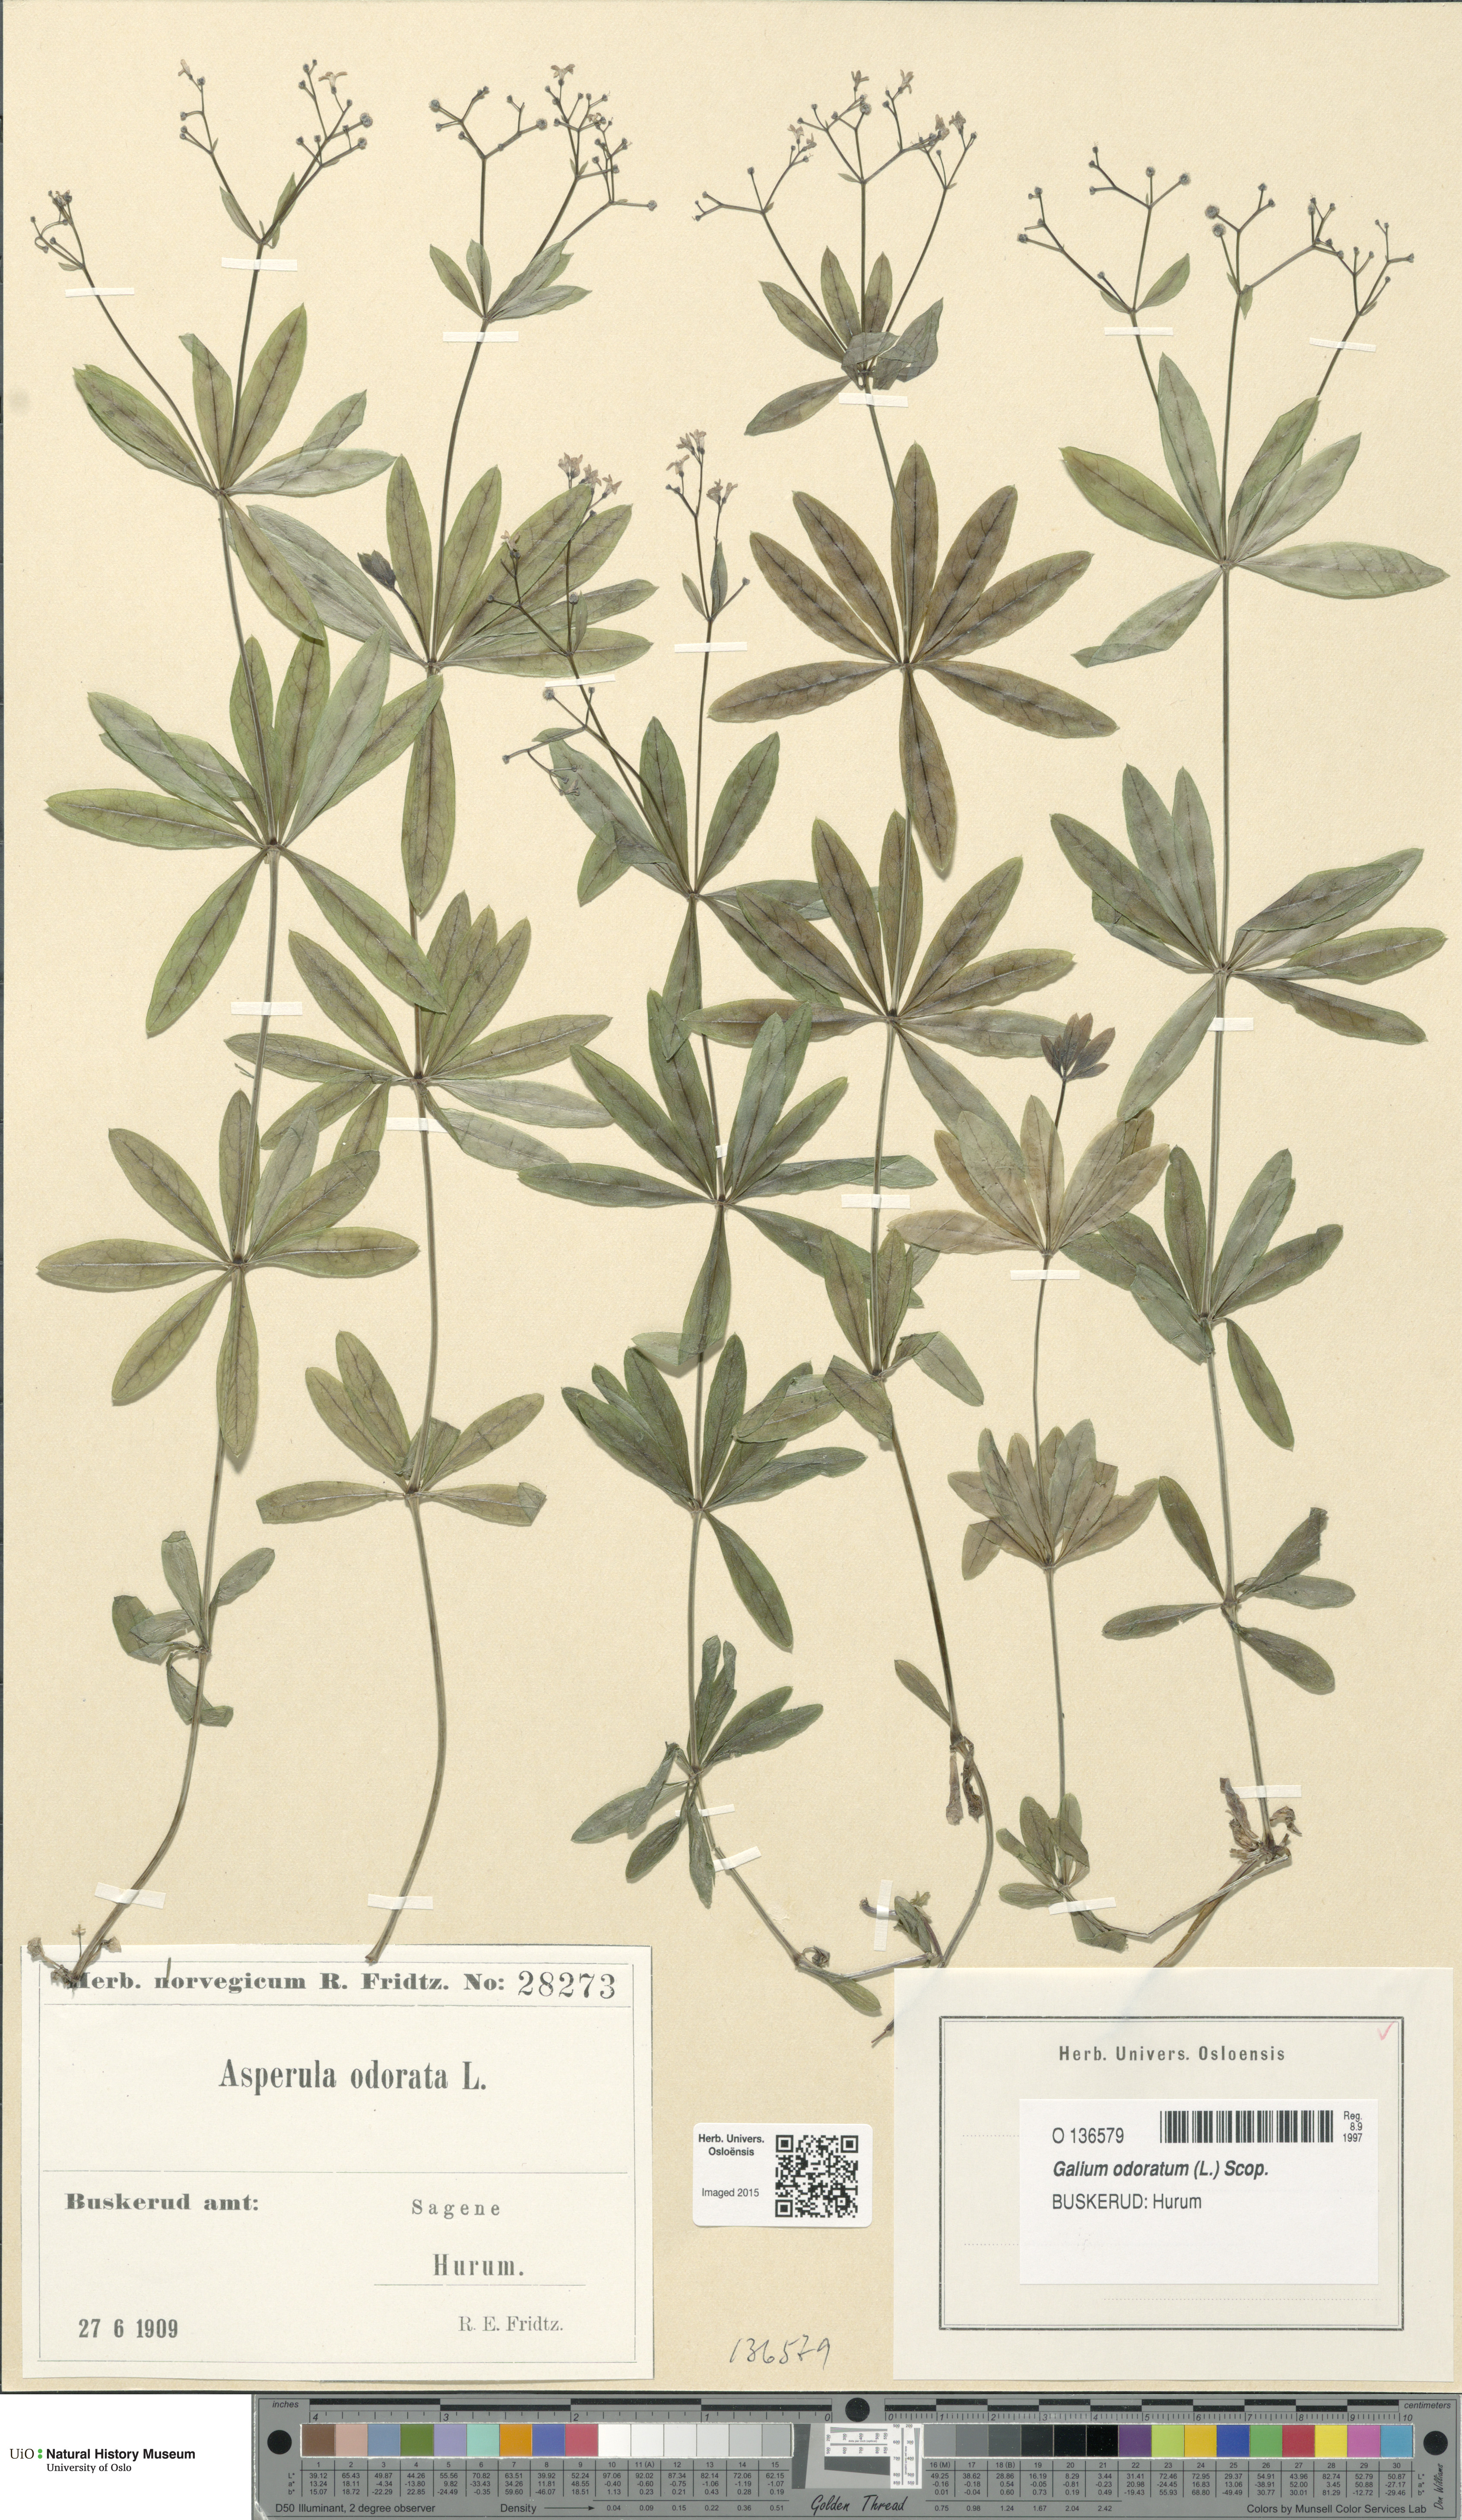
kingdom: Plantae
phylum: Tracheophyta
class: Magnoliopsida
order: Gentianales
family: Rubiaceae
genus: Galium
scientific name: Galium odoratum
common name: Sweet woodruff
